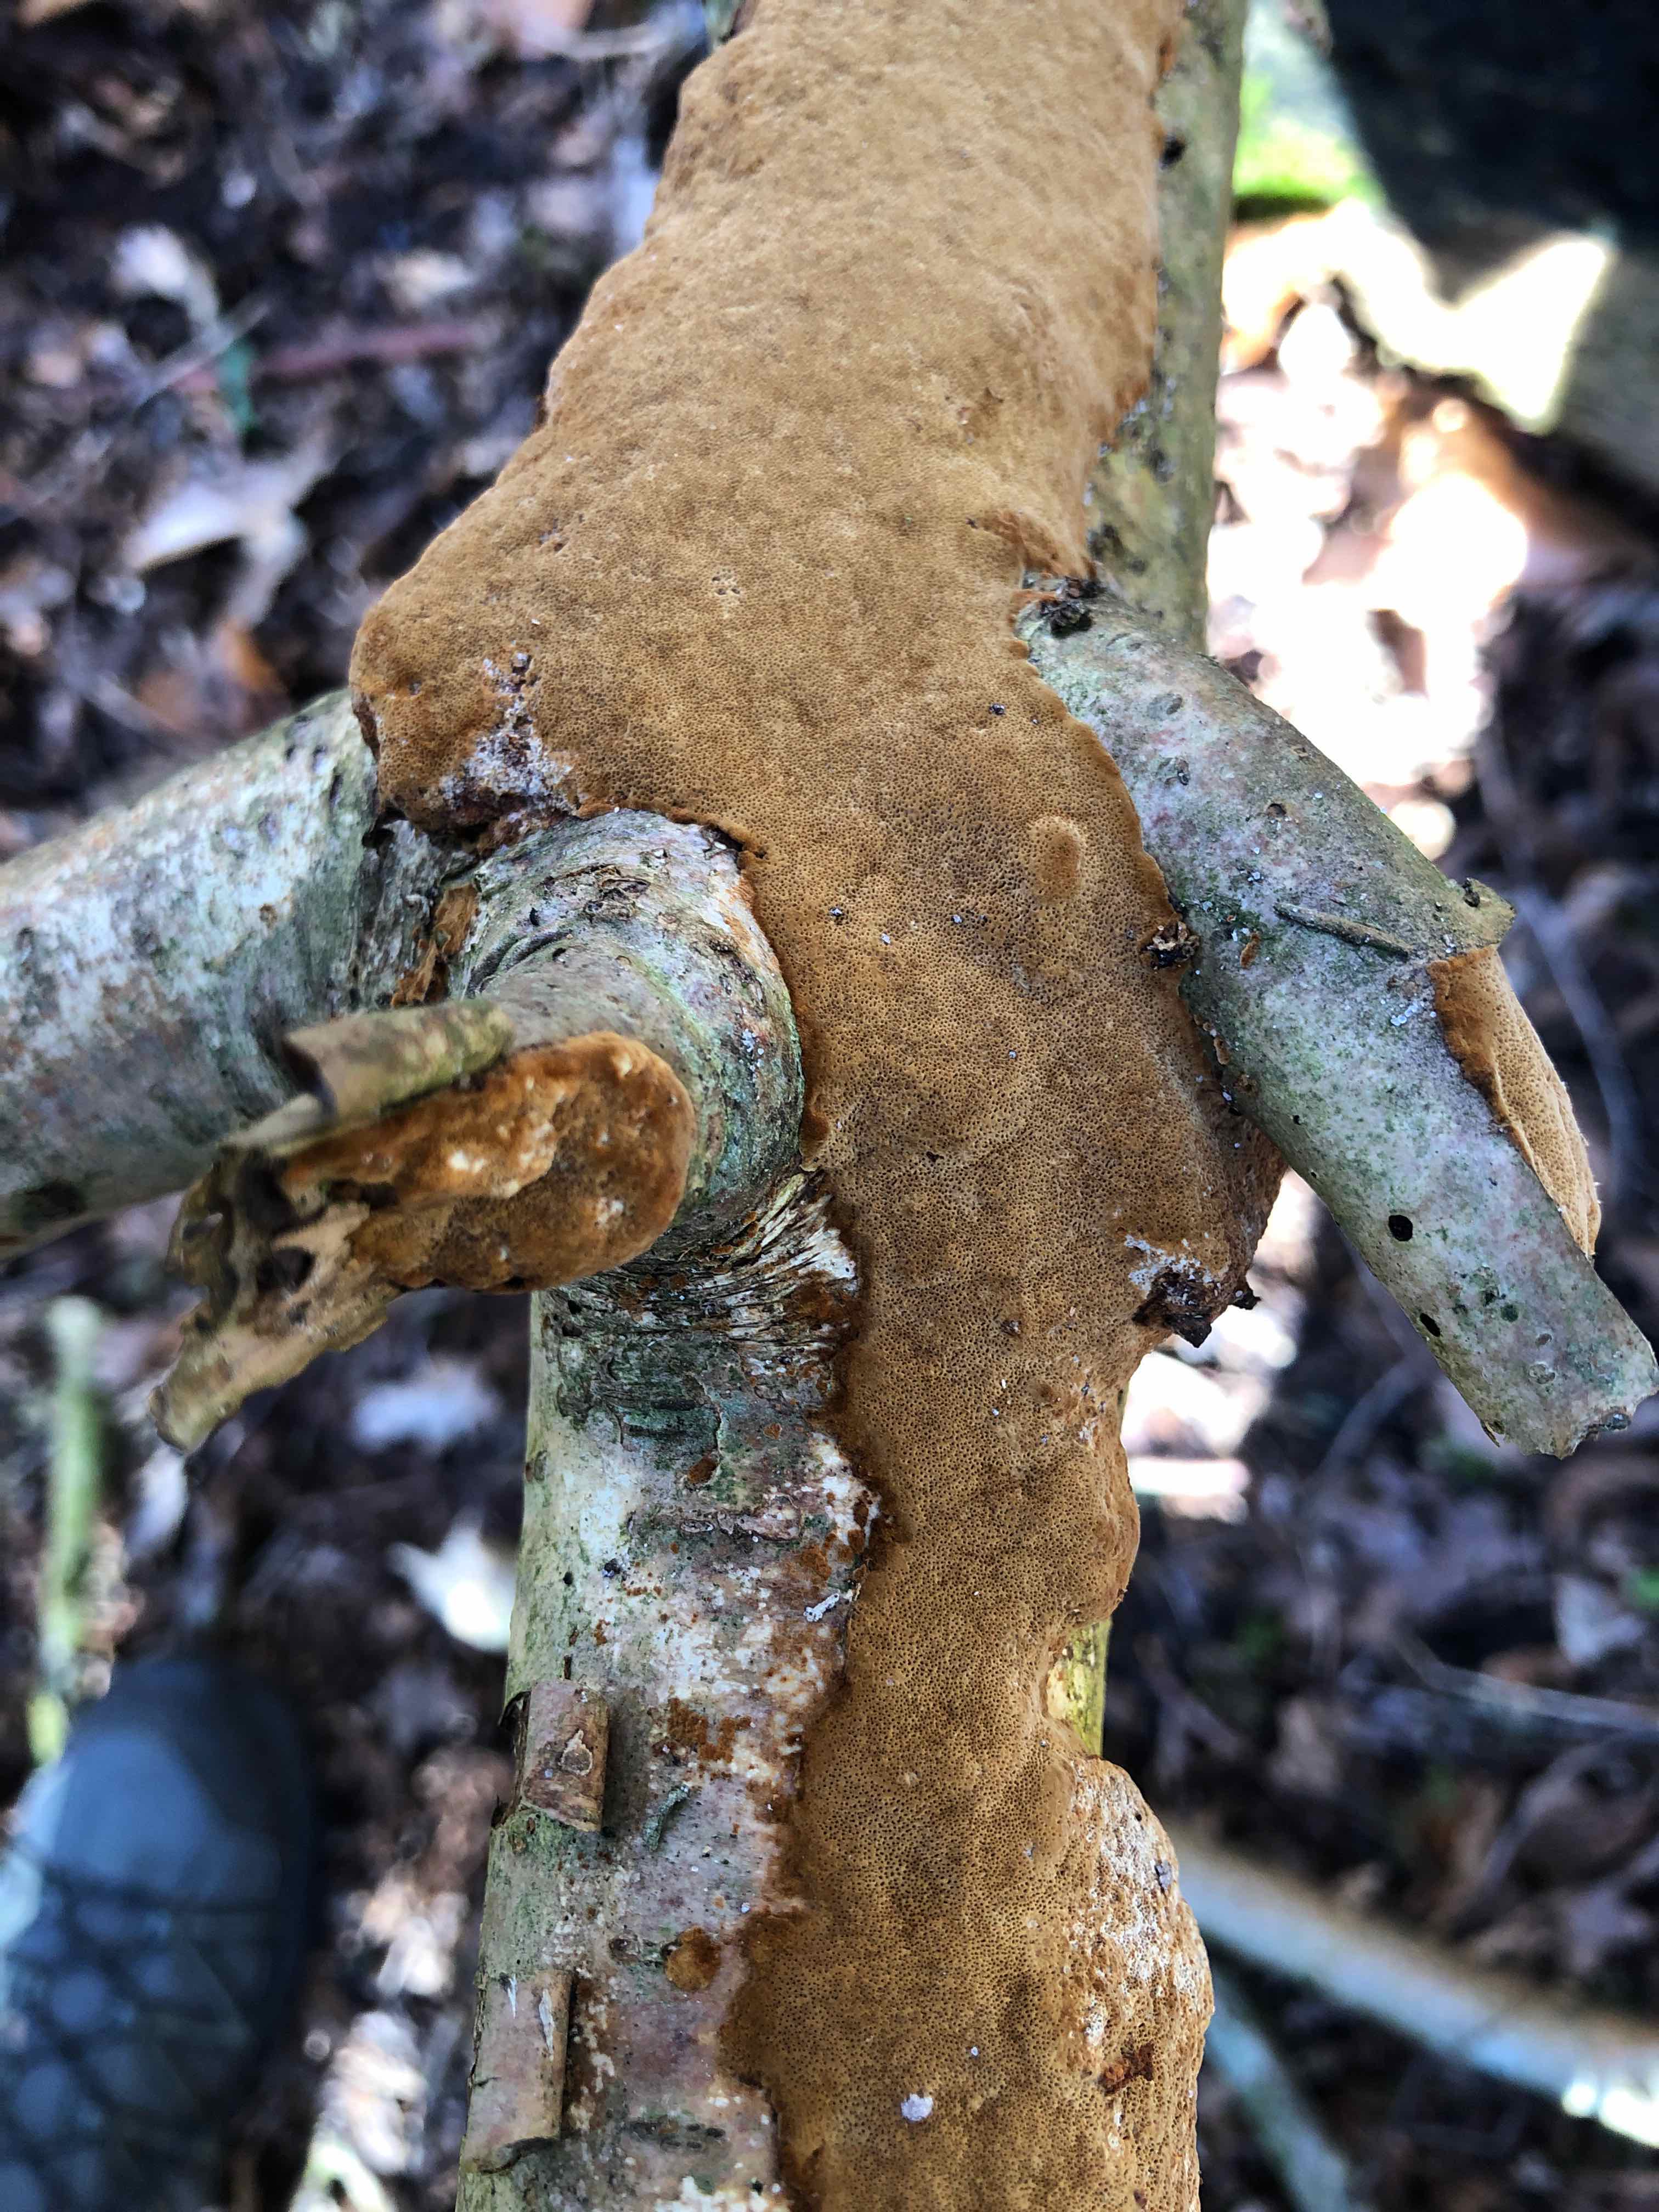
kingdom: Fungi
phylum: Basidiomycota
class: Agaricomycetes
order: Hymenochaetales
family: Hymenochaetaceae
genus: Fuscoporia
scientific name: Fuscoporia ferrea
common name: skorpe-ildporesvamp
